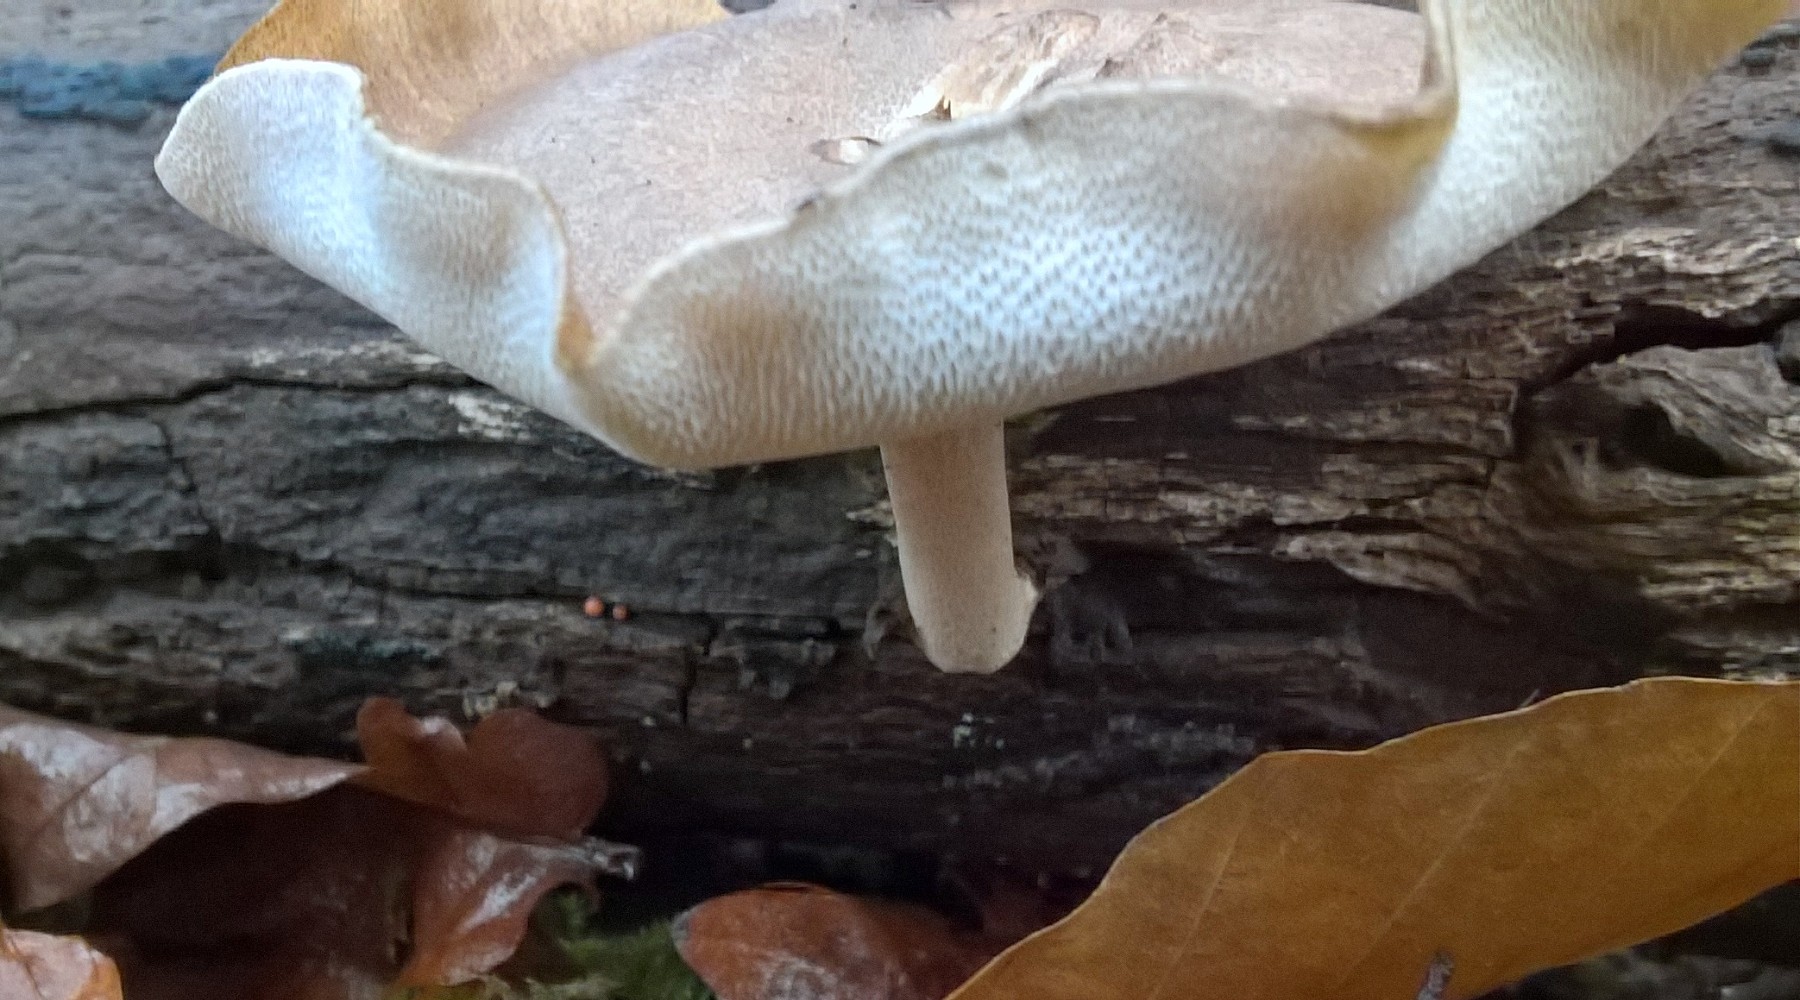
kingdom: Fungi
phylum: Basidiomycota
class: Agaricomycetes
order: Polyporales
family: Polyporaceae
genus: Lentinus
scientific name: Lentinus brumalis
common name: vinter-stilkporesvamp
